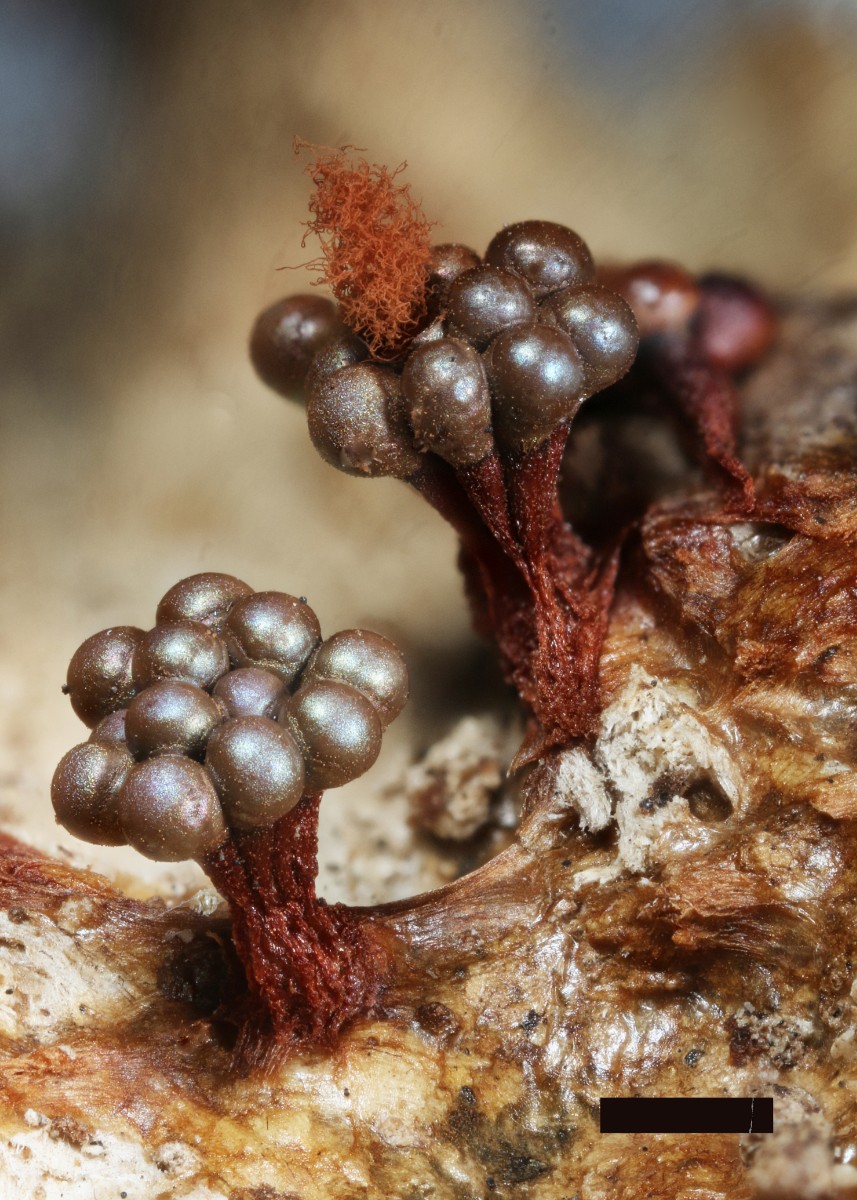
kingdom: Protozoa
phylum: Mycetozoa
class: Myxomycetes
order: Trichiales
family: Trichiaceae
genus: Metatrichia
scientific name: Metatrichia vesparia
